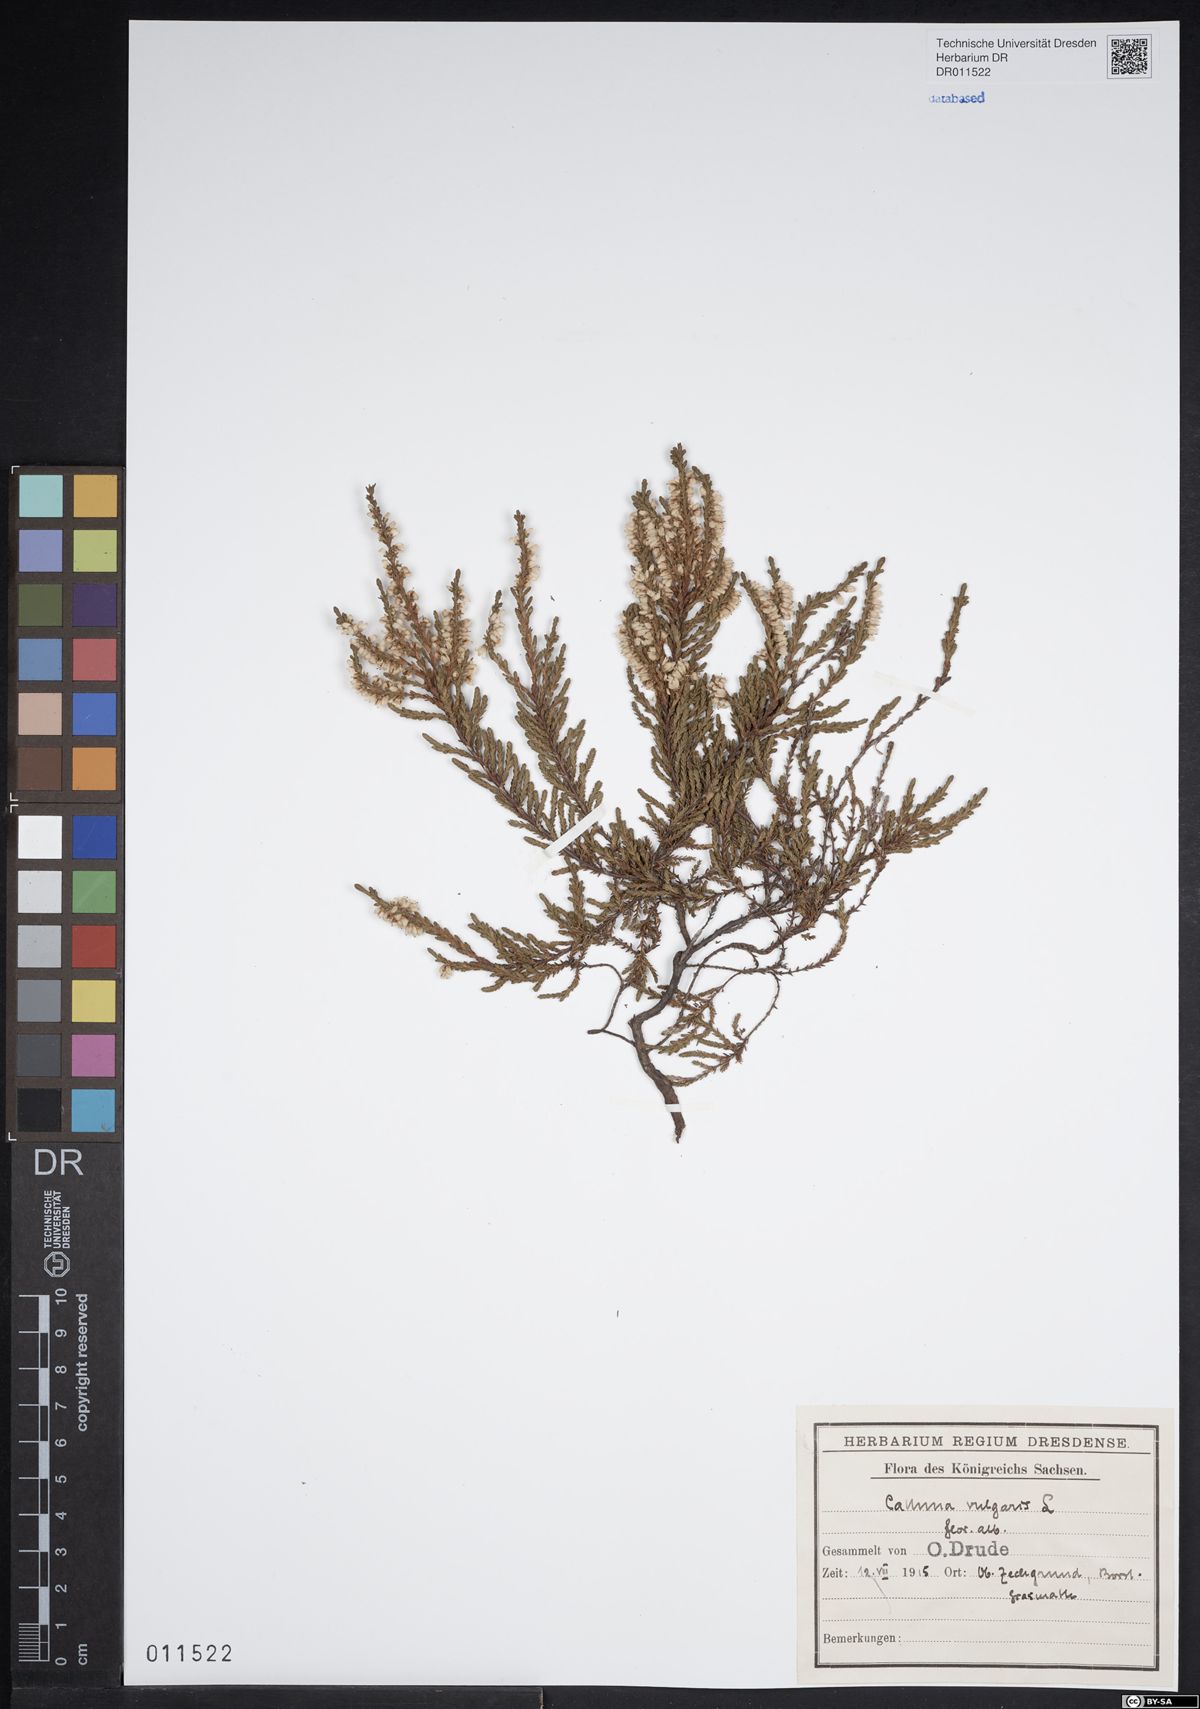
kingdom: Plantae
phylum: Tracheophyta
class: Magnoliopsida
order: Ericales
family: Ericaceae
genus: Calluna
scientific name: Calluna vulgaris
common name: Heather
